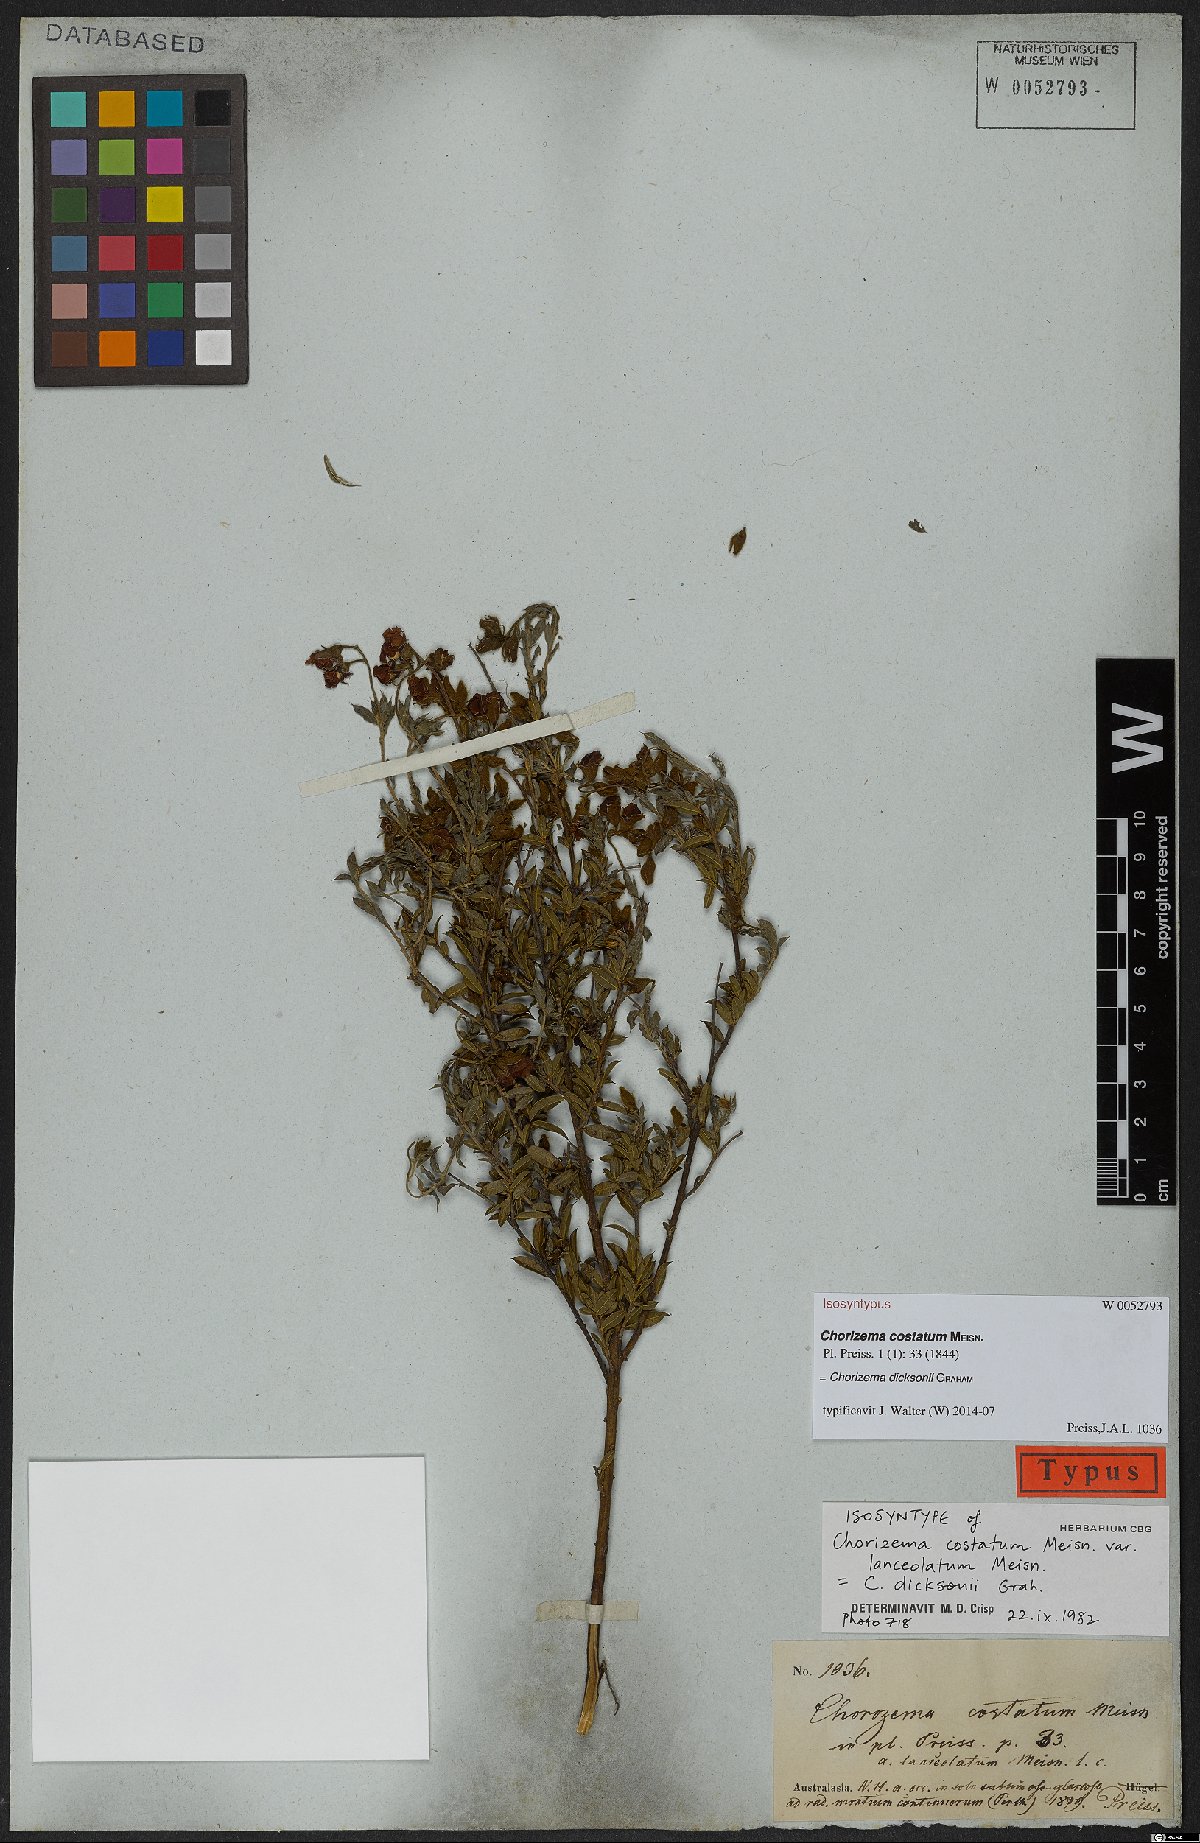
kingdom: Plantae
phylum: Tracheophyta
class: Magnoliopsida
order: Fabales
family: Fabaceae
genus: Chorizema
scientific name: Chorizema dicksonii
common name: Yellow-eyed flame-pea
